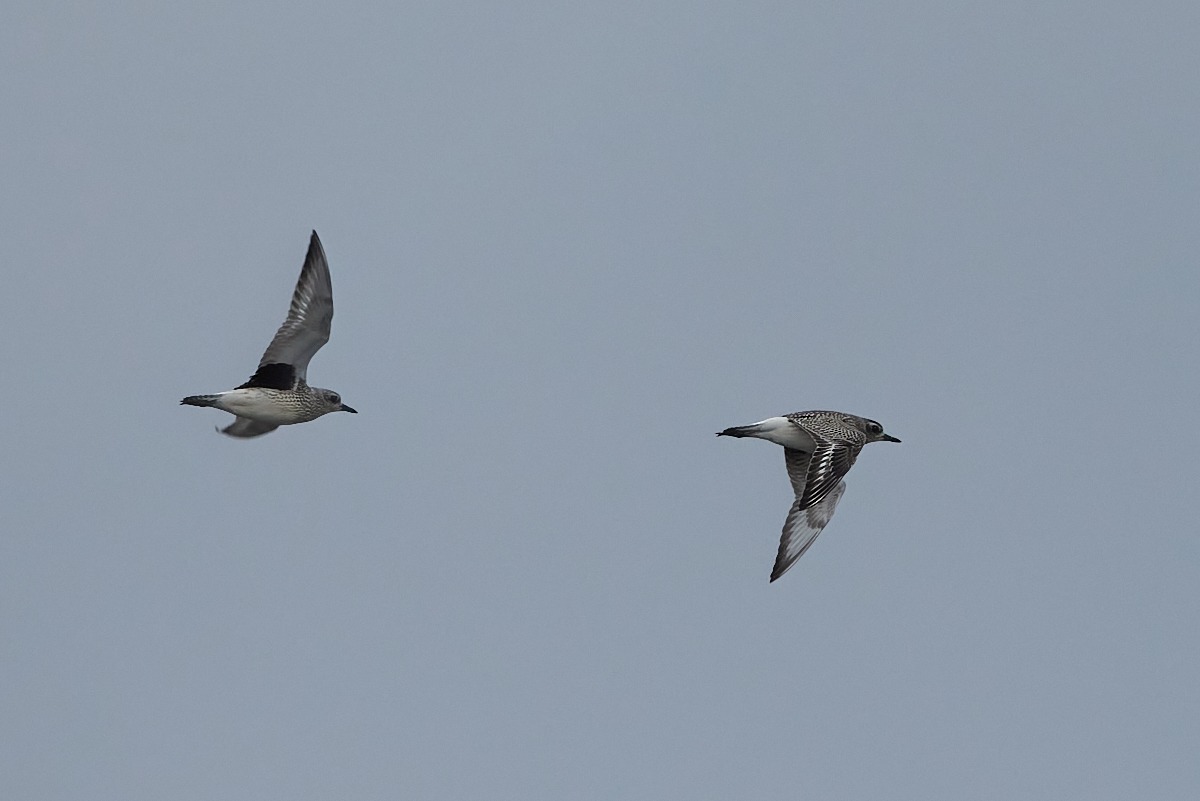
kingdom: Animalia
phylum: Chordata
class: Aves
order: Charadriiformes
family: Charadriidae
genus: Pluvialis
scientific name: Pluvialis squatarola
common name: Strandhjejle
